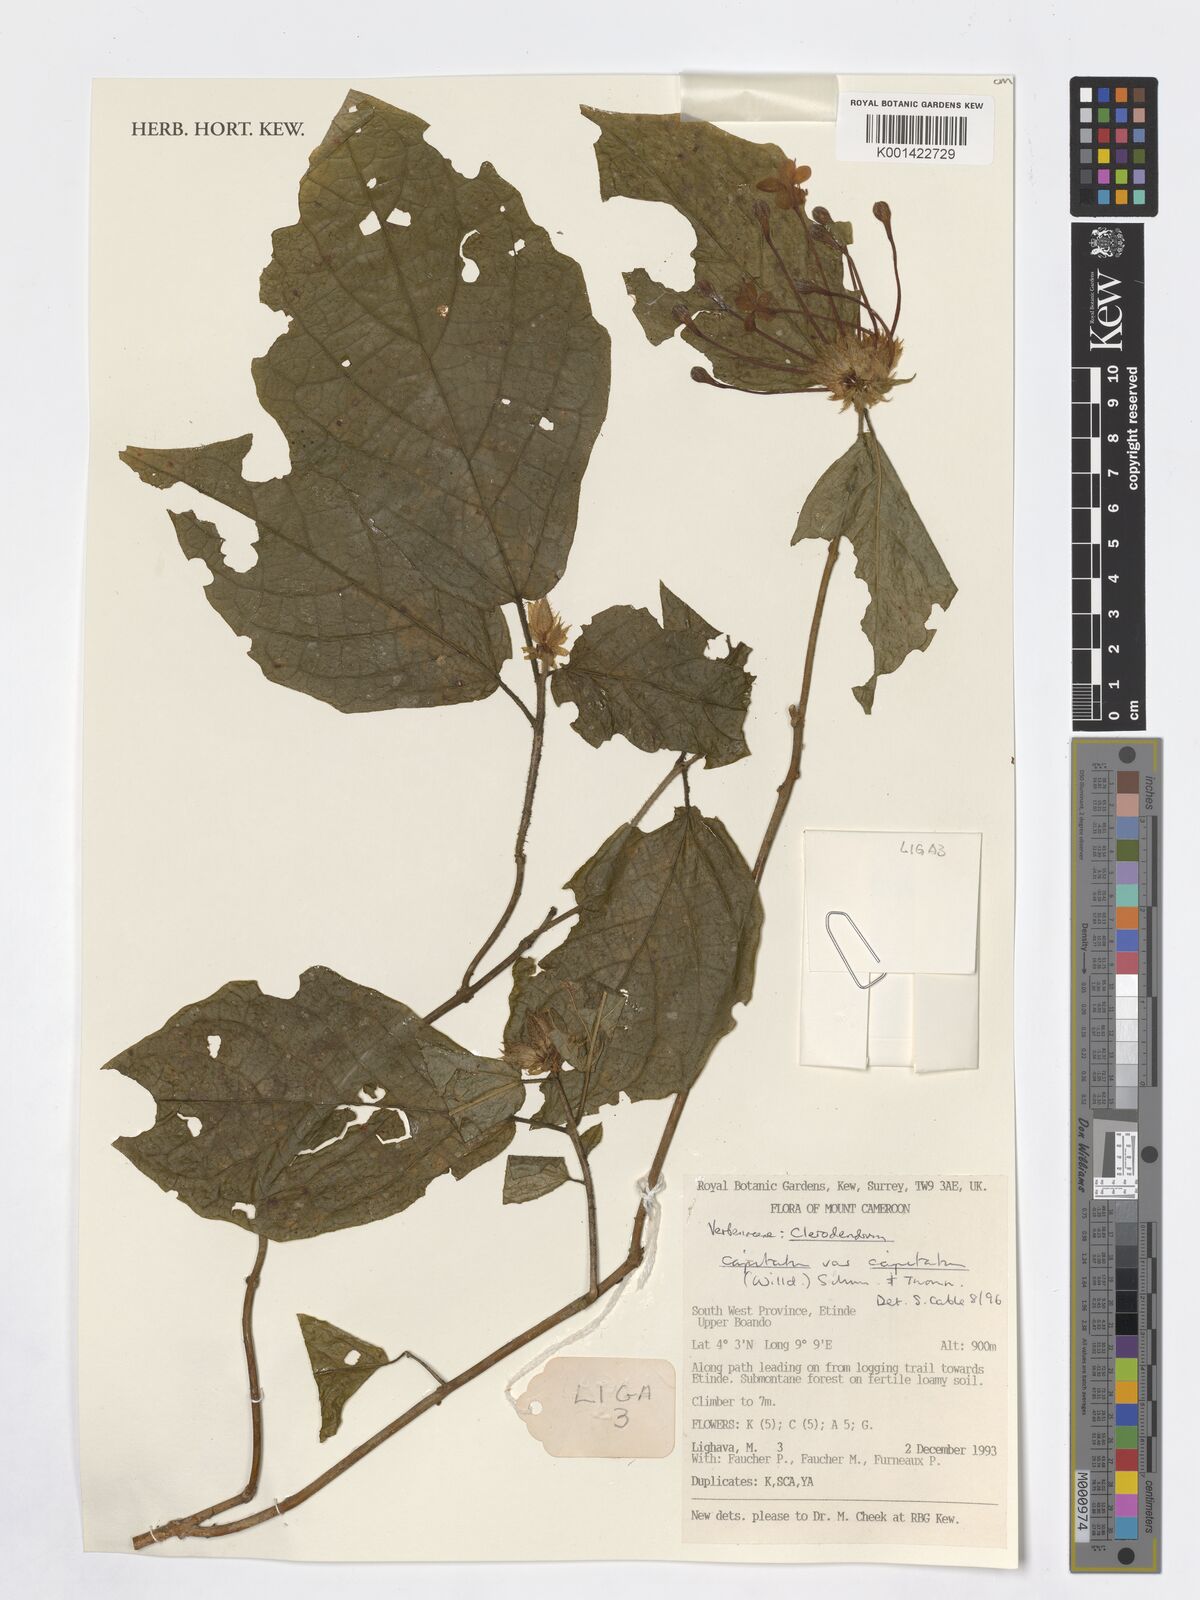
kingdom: Plantae
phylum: Tracheophyta
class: Magnoliopsida
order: Lamiales
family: Lamiaceae
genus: Clerodendrum
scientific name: Clerodendrum capitatum
